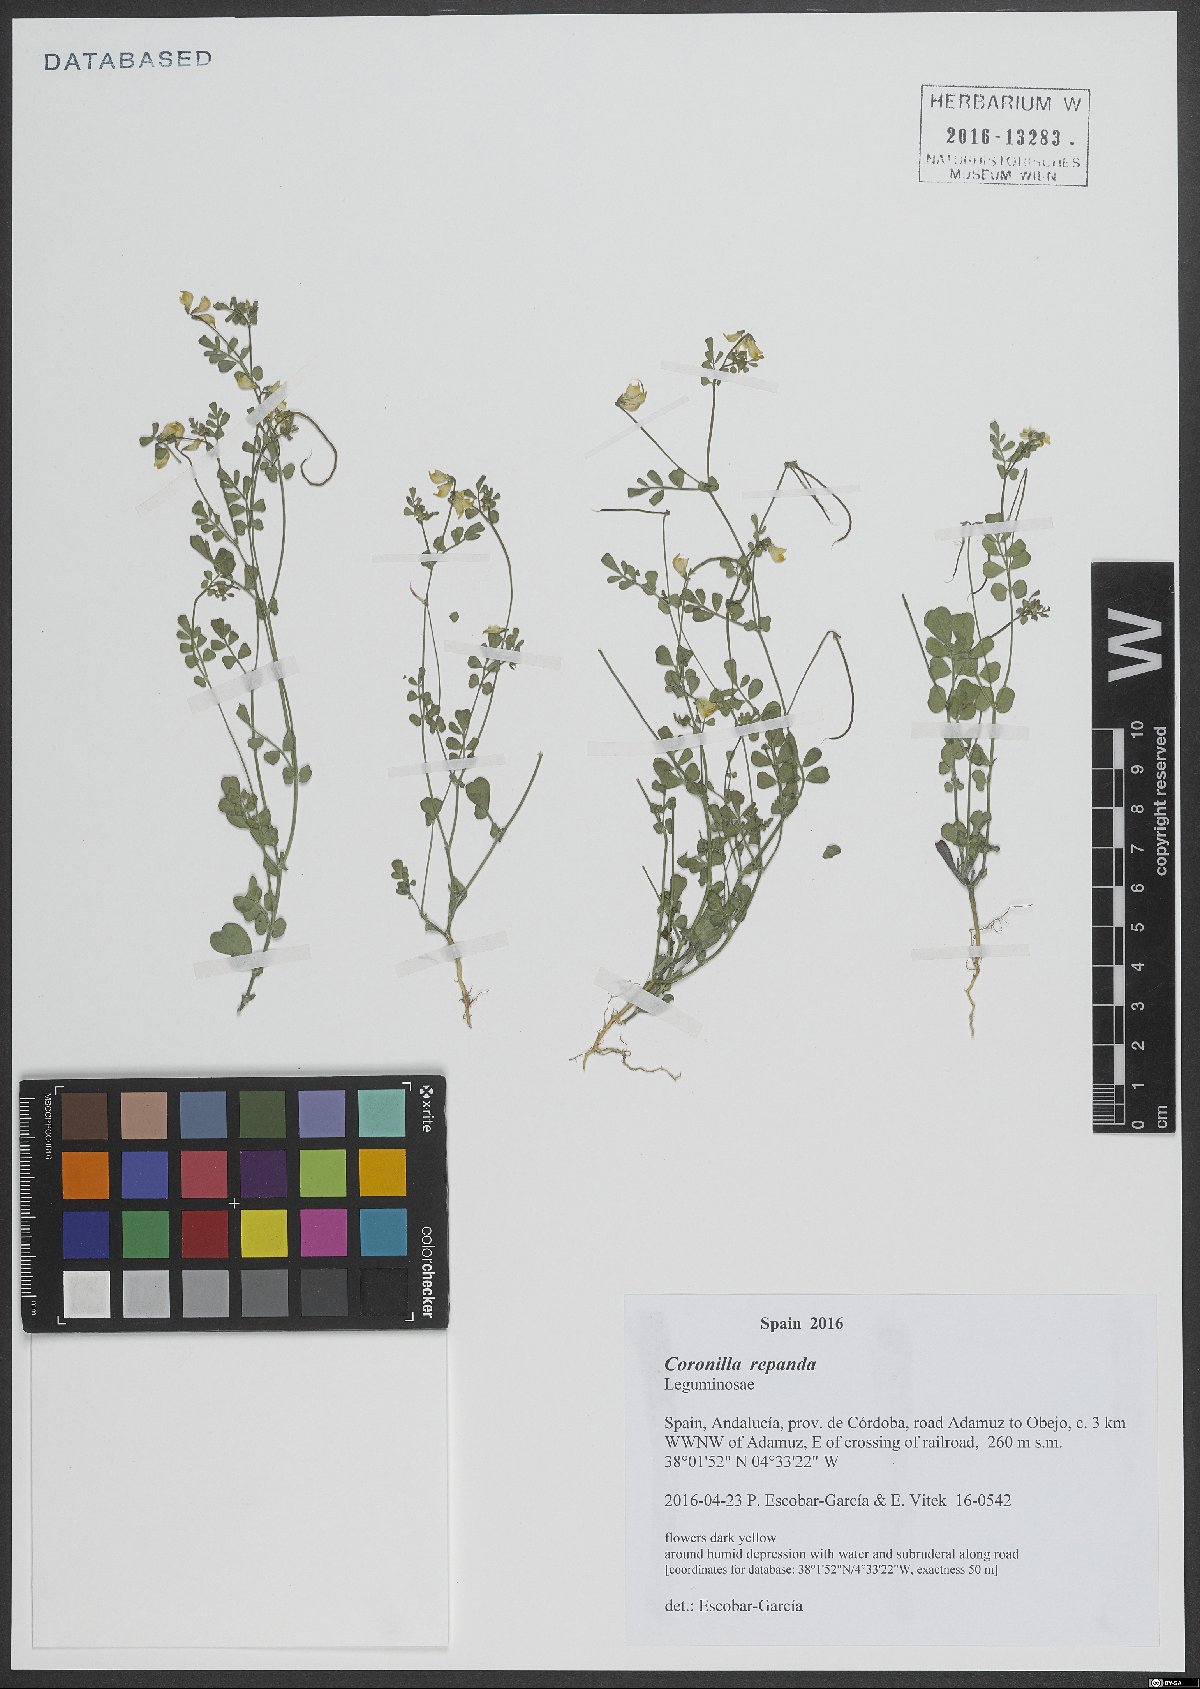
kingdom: Plantae
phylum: Tracheophyta
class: Magnoliopsida
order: Fabales
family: Fabaceae
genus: Coronilla
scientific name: Coronilla repanda
